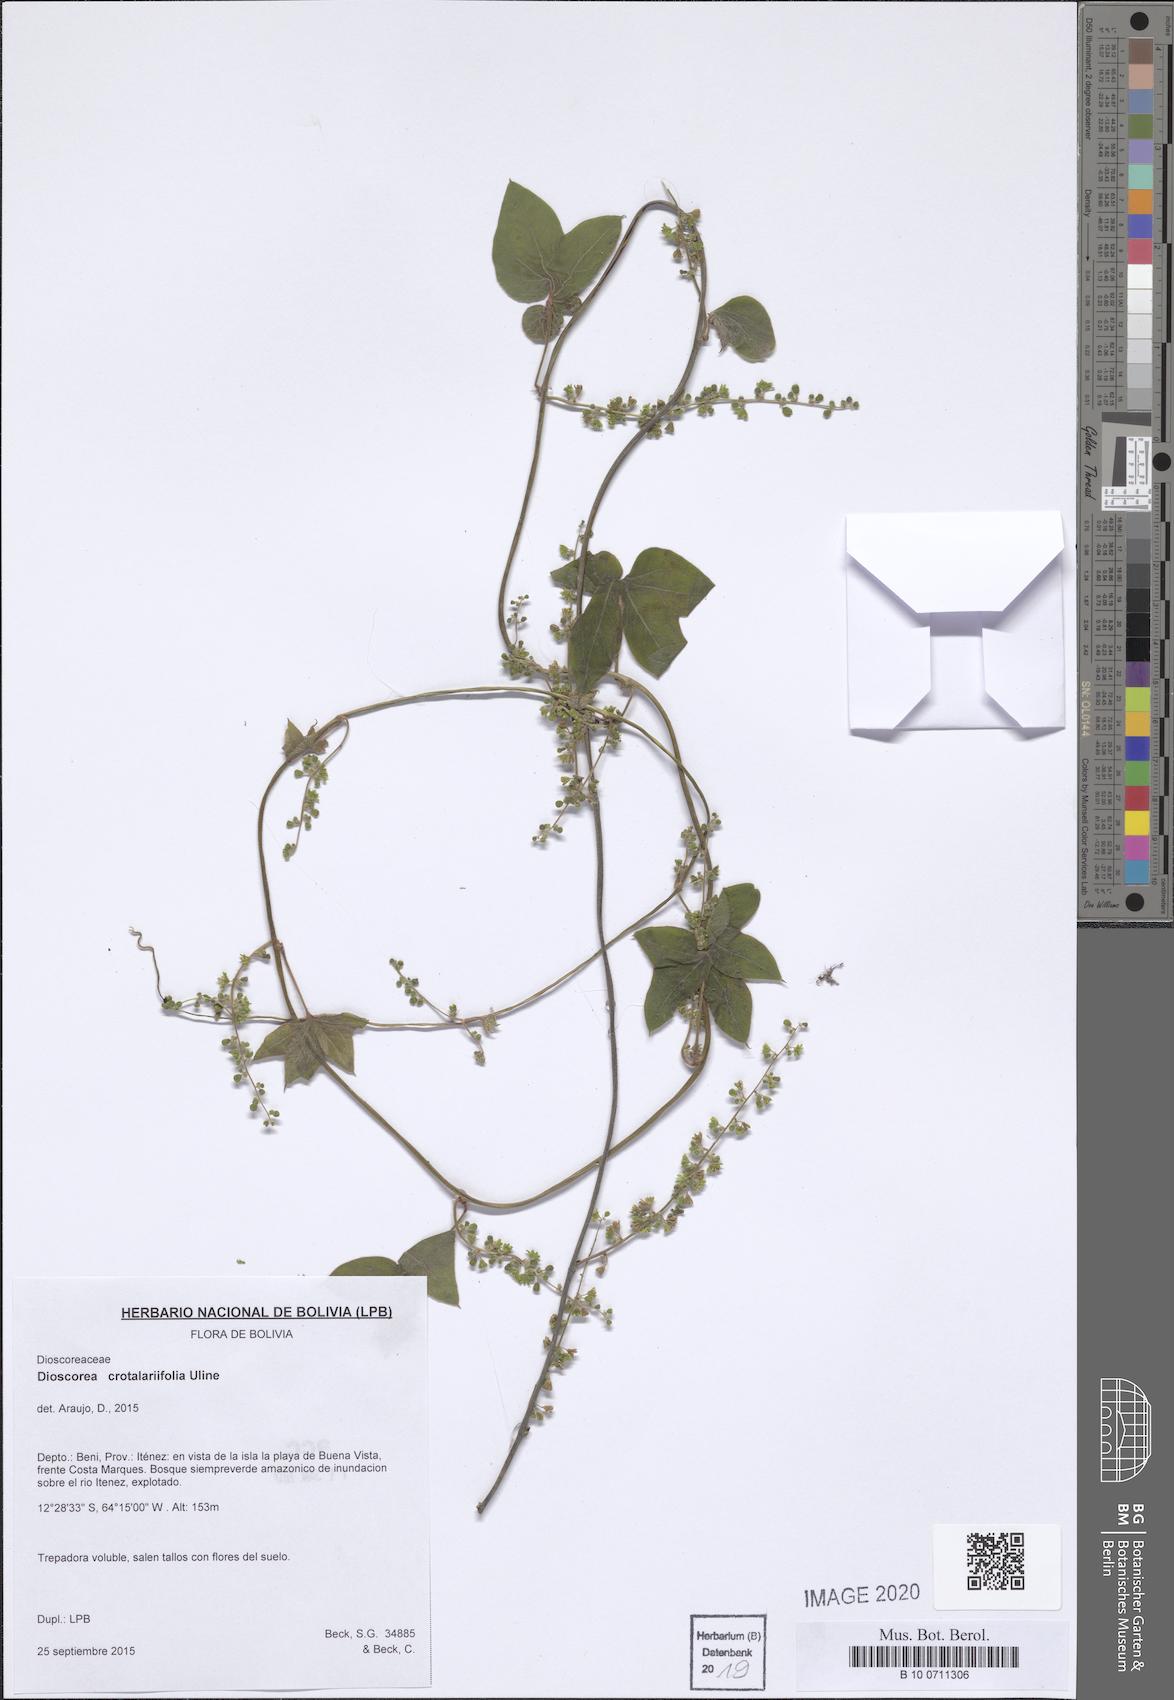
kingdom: Plantae
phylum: Tracheophyta
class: Liliopsida
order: Dioscoreales
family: Dioscoreaceae
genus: Dioscorea
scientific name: Dioscorea crotalariifolia
